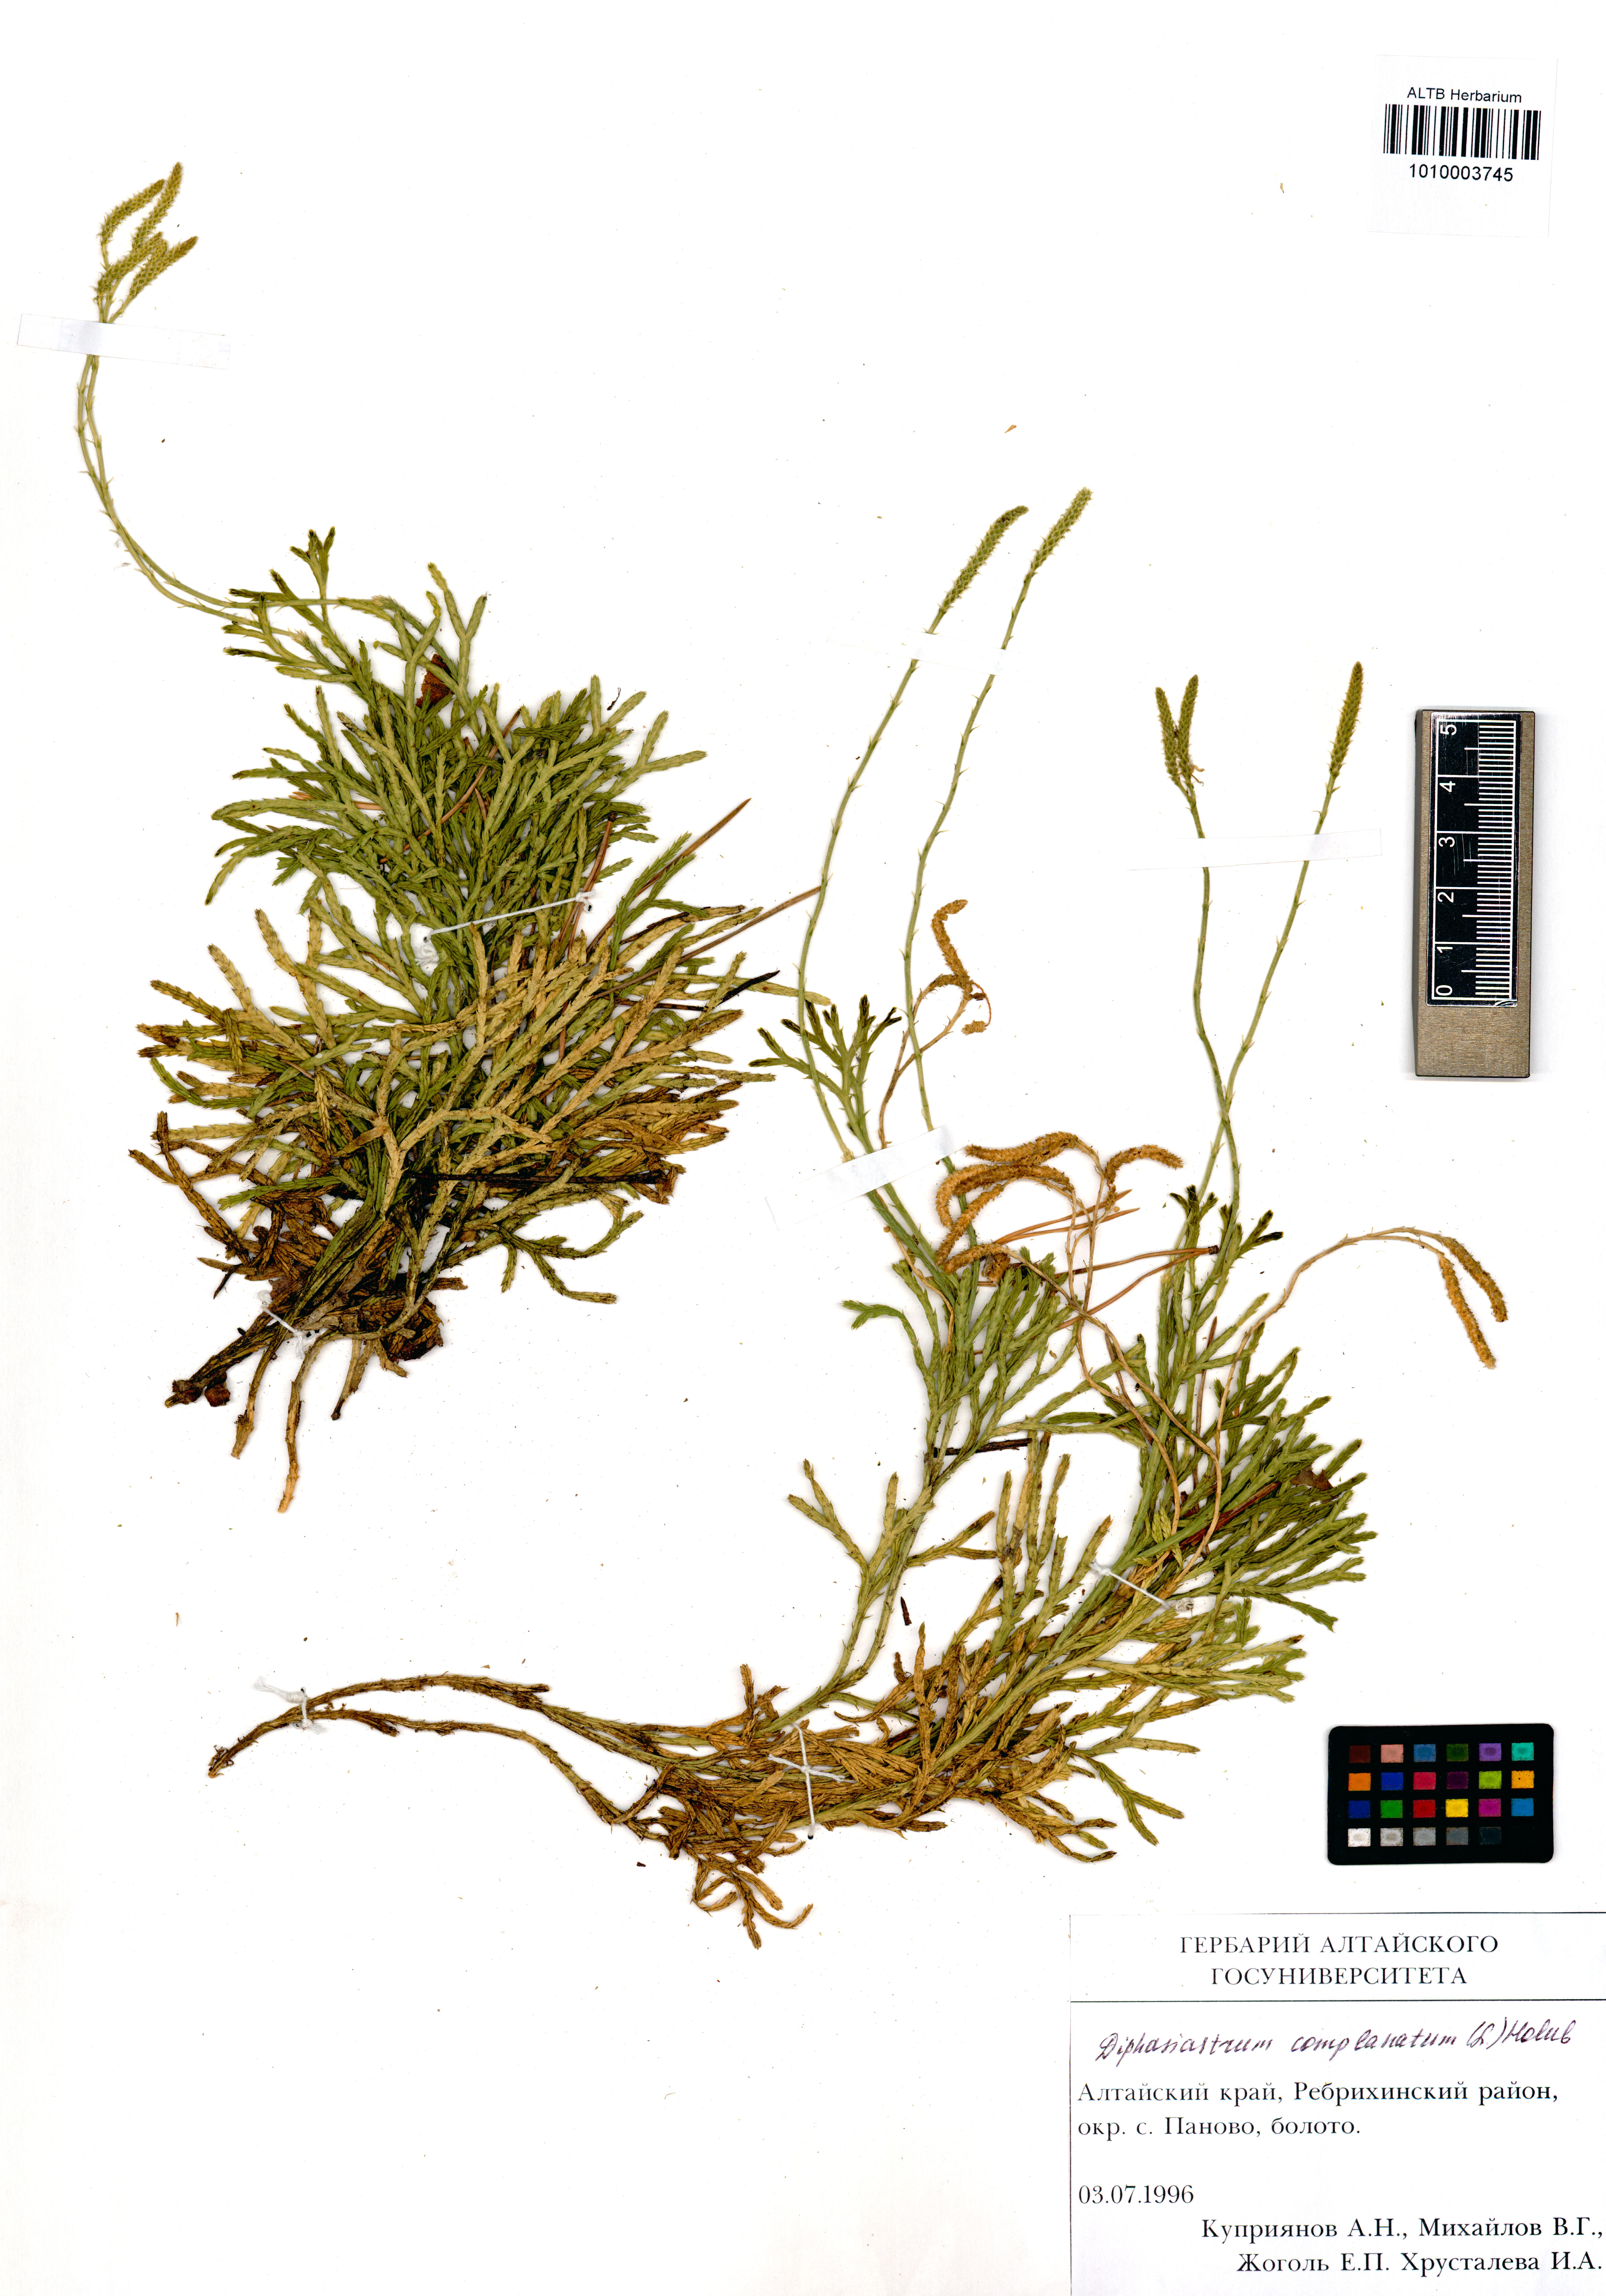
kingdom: Plantae
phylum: Tracheophyta
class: Lycopodiopsida
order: Lycopodiales
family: Lycopodiaceae
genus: Diphasiastrum
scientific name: Diphasiastrum complanatum
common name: Northern running-pine
